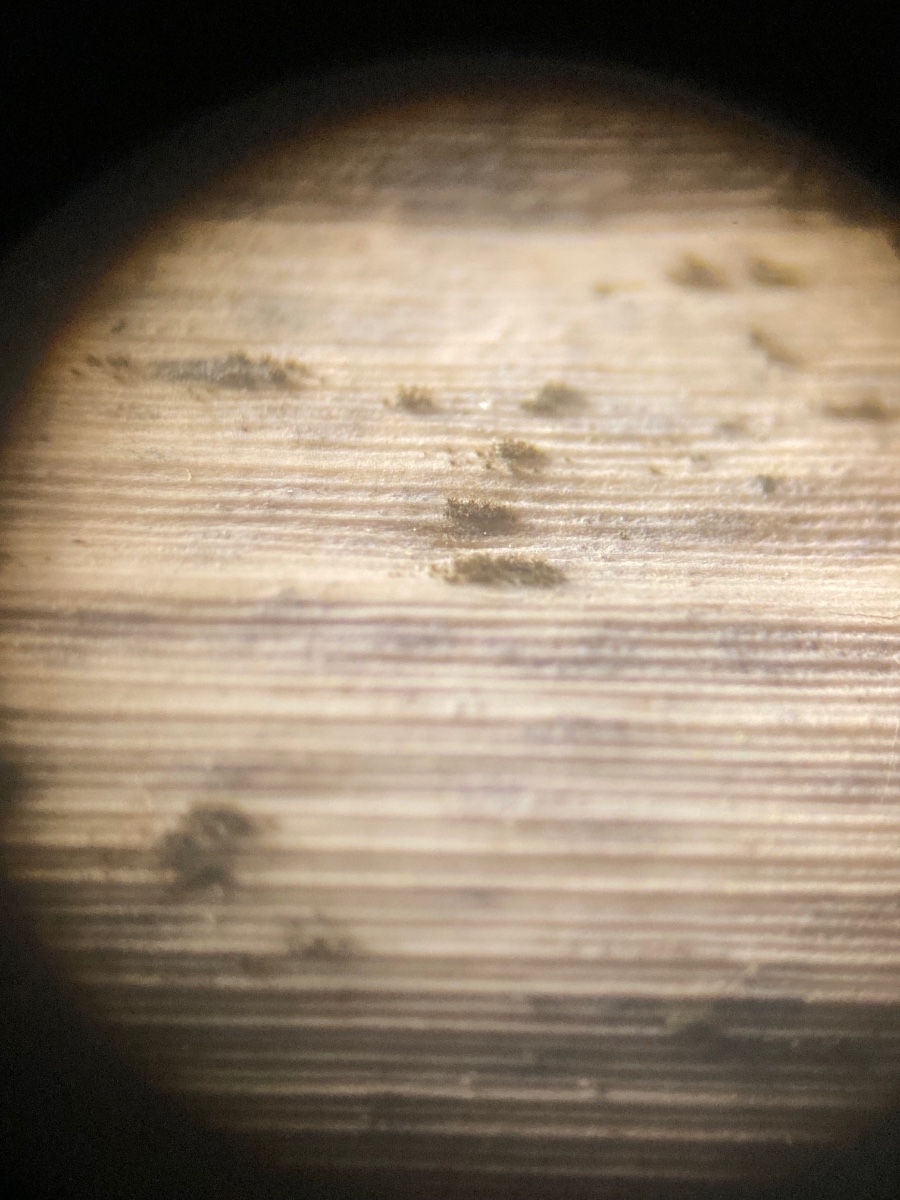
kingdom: Fungi
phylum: Ascomycota
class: Dothideomycetes
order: Capnodiales
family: Cladosporiaceae
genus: Cladosporium
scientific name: Cladosporium macrocarpum
